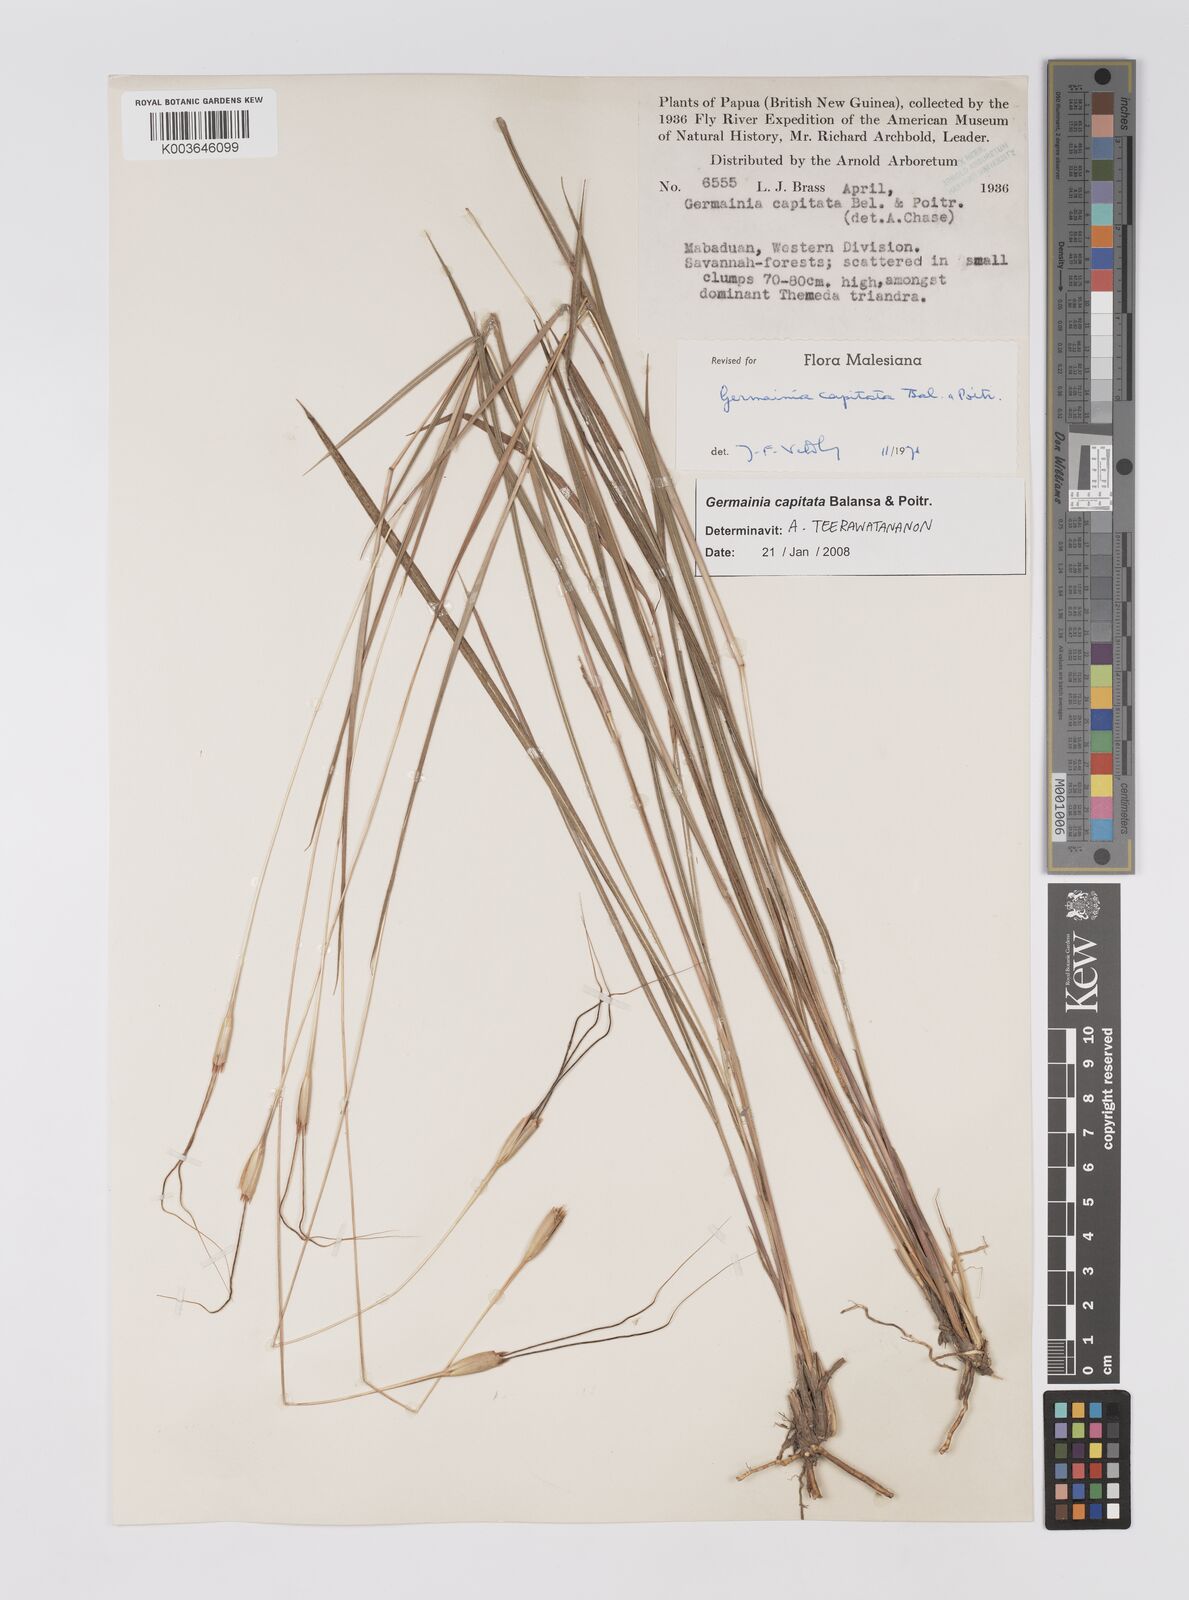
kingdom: Plantae
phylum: Tracheophyta
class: Liliopsida
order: Poales
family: Poaceae
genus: Germainia
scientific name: Germainia capitata
